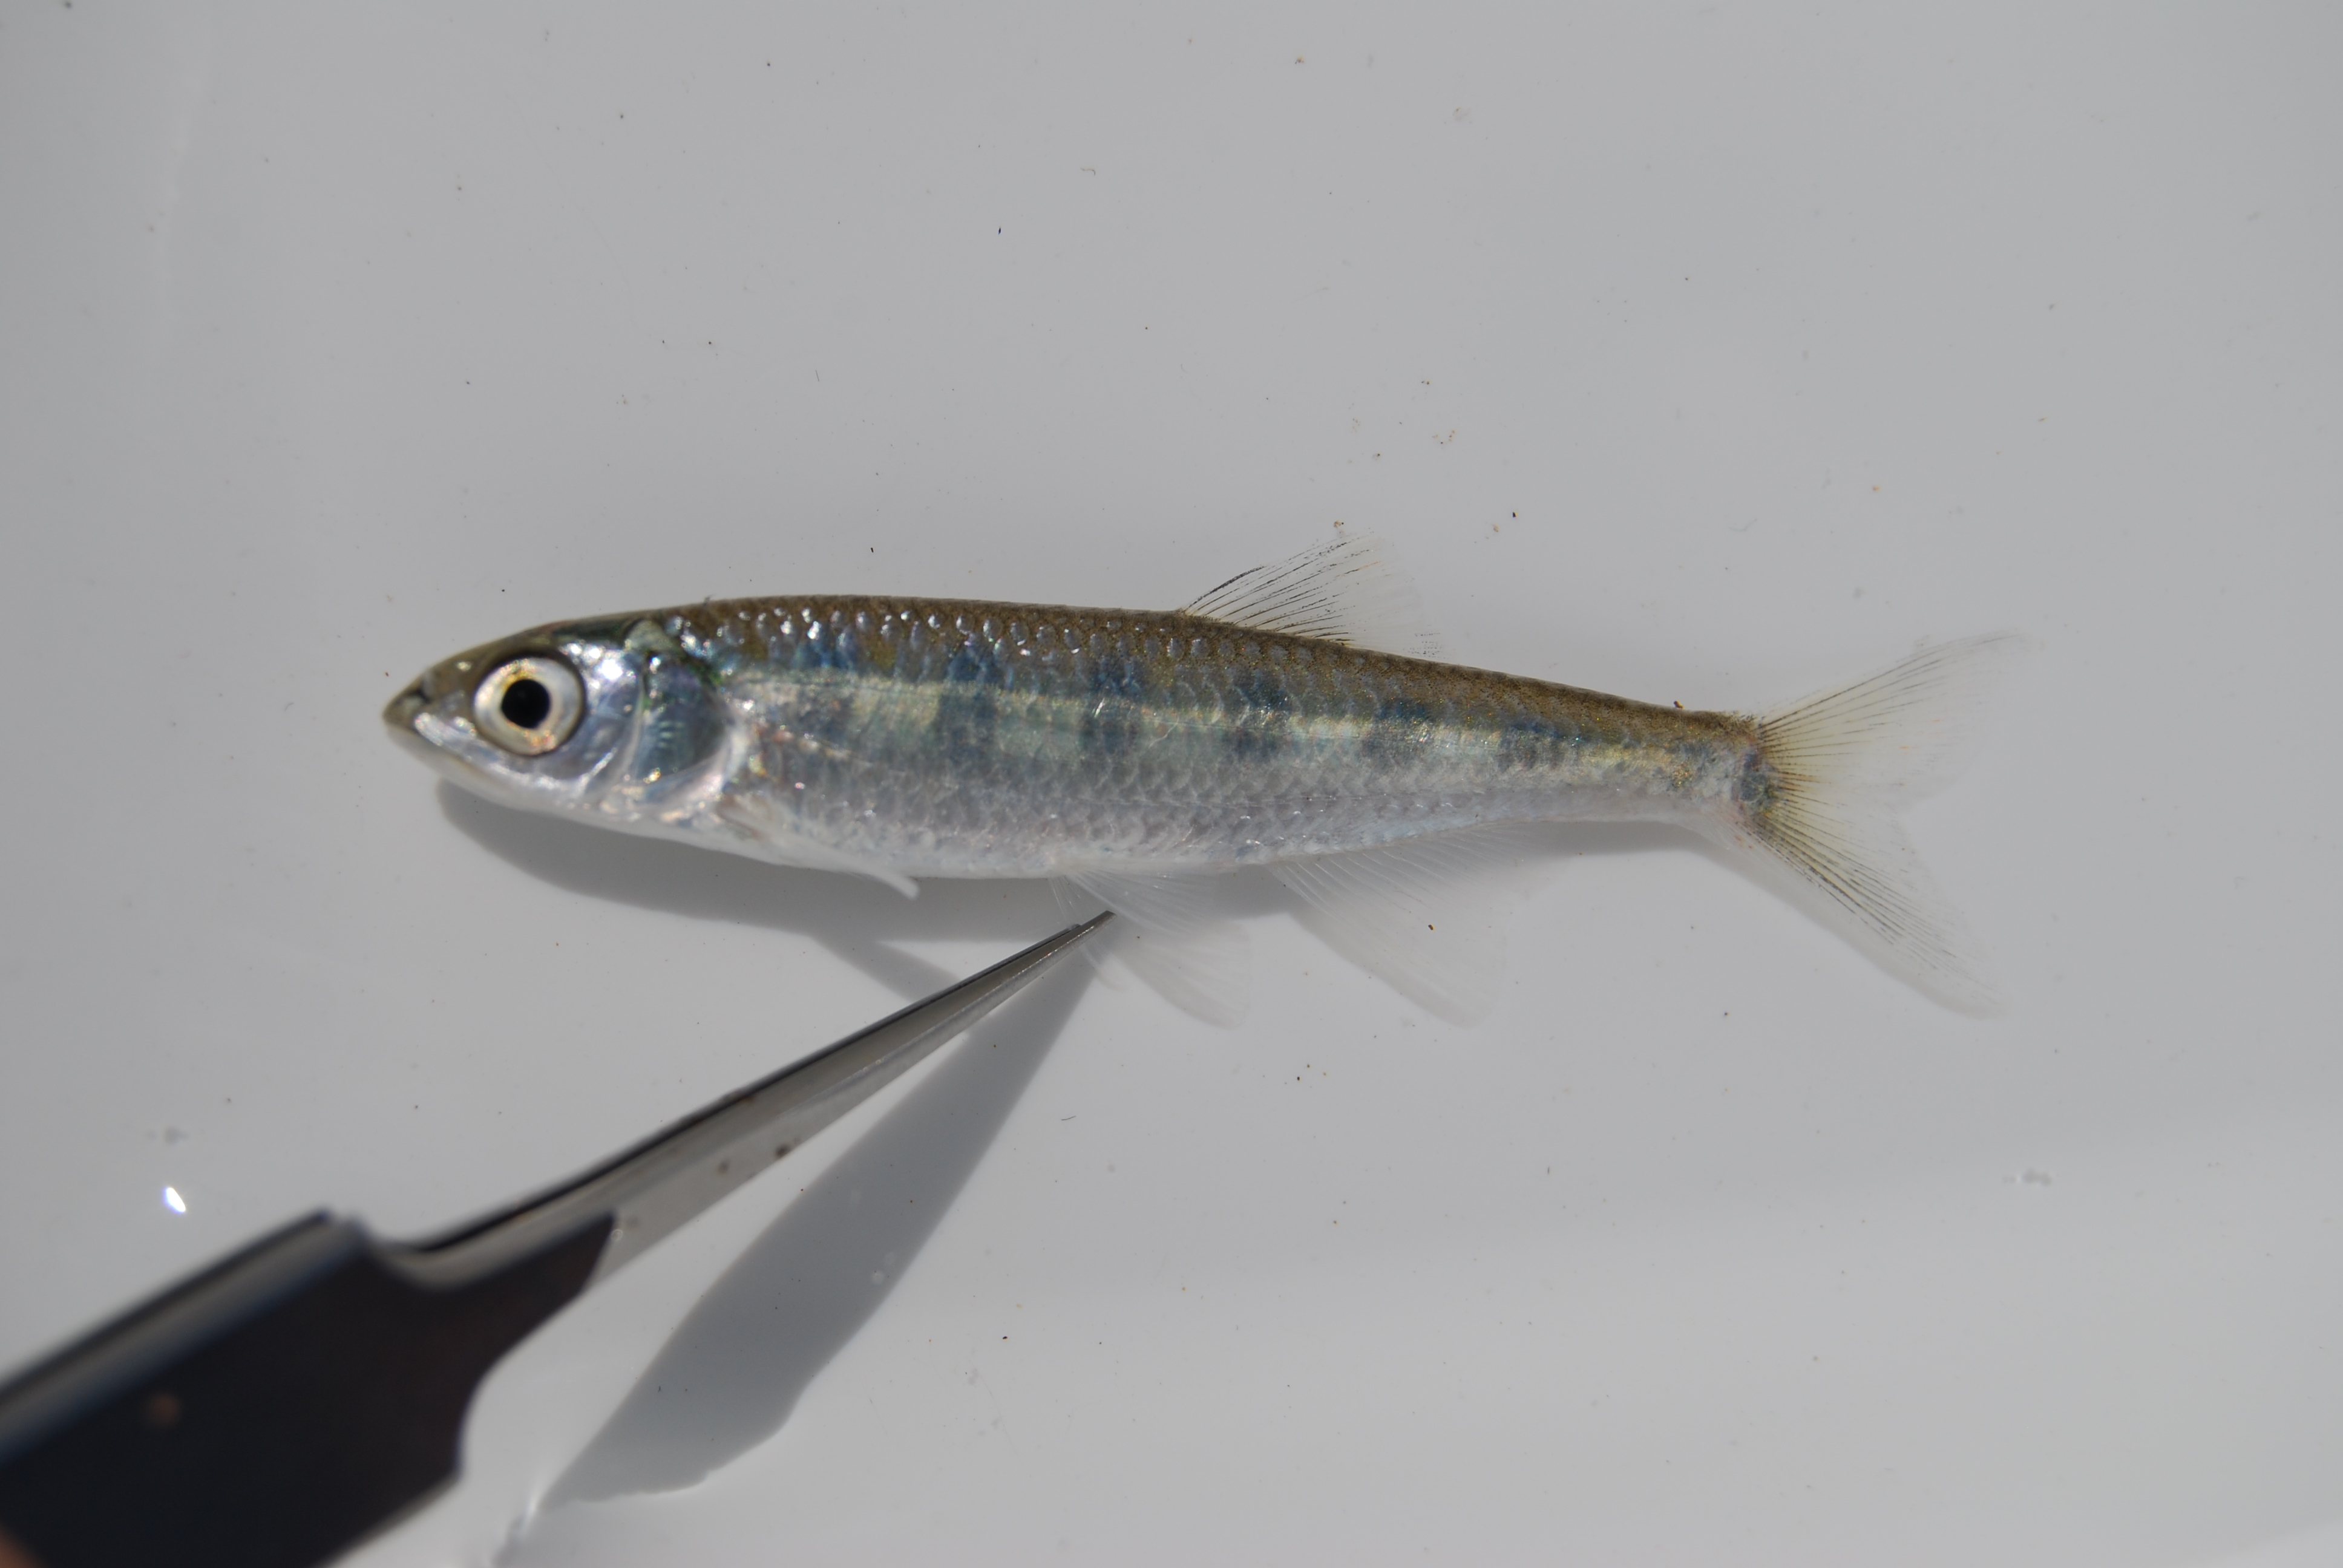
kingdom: Animalia
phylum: Chordata
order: Cypriniformes
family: Cyprinidae
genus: Opsaridium
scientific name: Opsaridium zambezense
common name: Barred minnow
